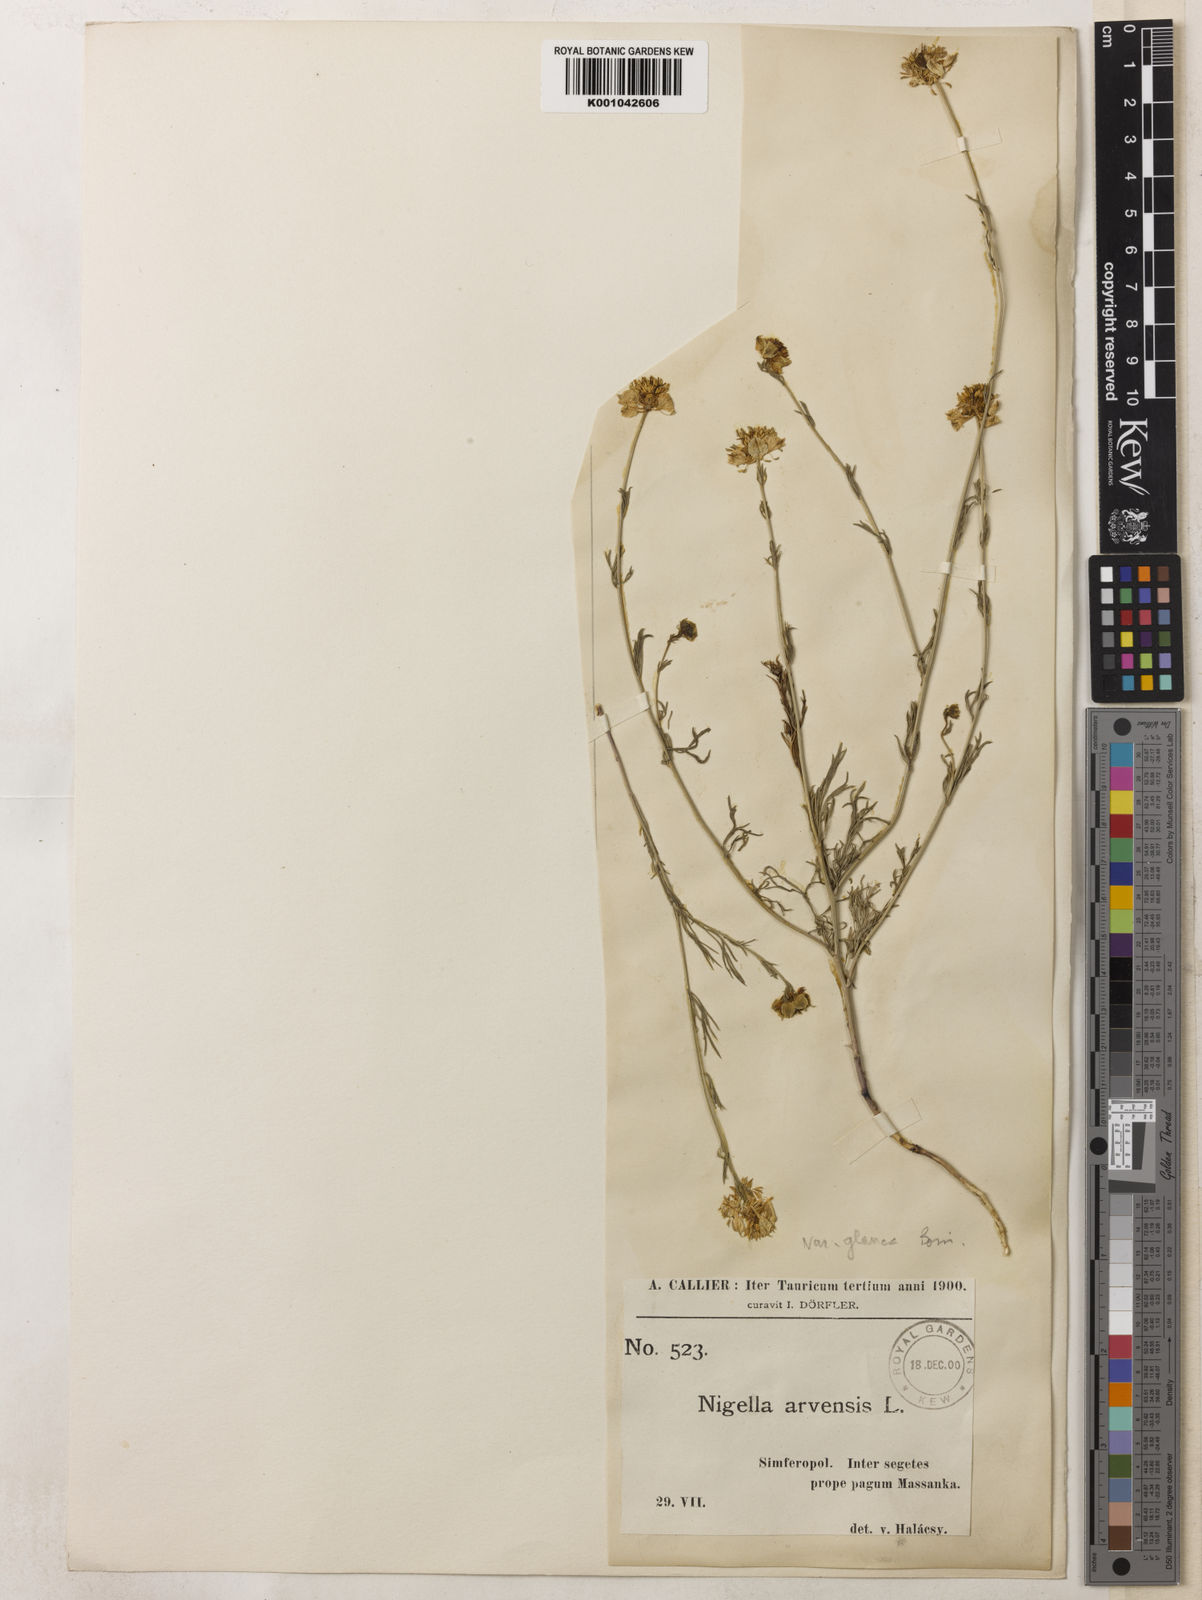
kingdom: Plantae
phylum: Tracheophyta
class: Magnoliopsida
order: Ranunculales
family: Ranunculaceae
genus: Nigella
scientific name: Nigella arvensis
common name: Wild fennel-flower
